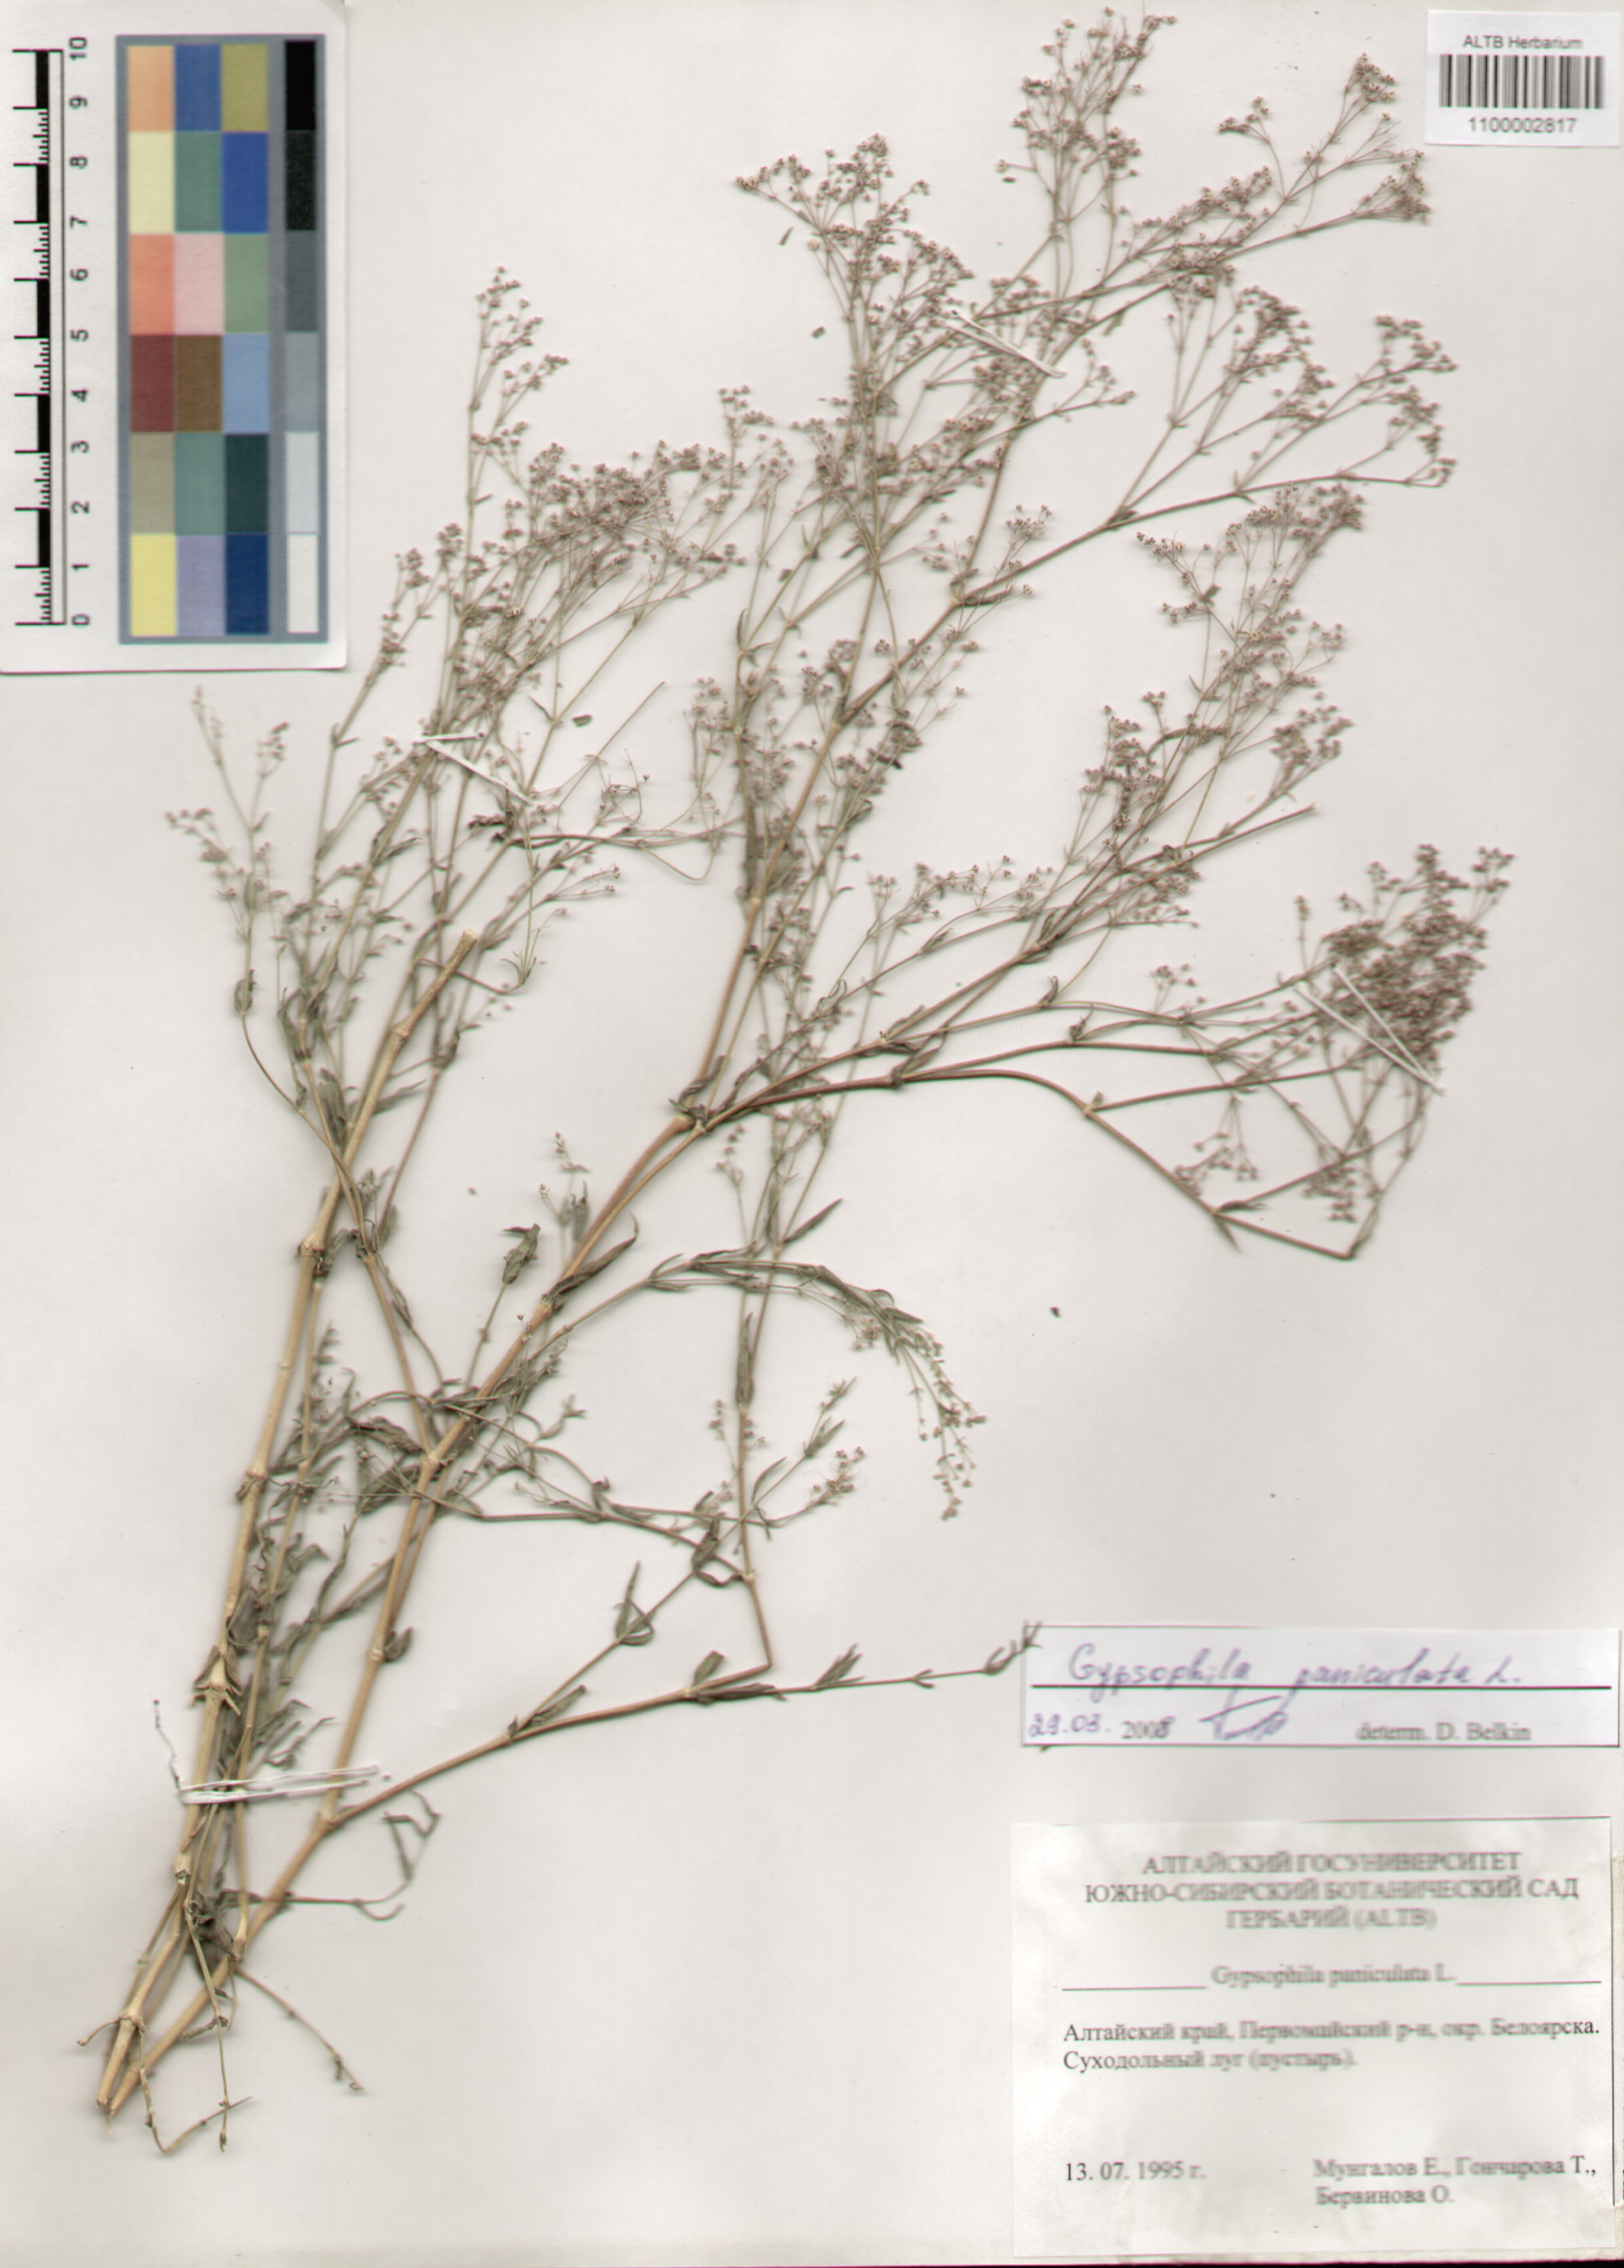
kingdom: Plantae
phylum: Tracheophyta
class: Magnoliopsida
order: Caryophyllales
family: Caryophyllaceae
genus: Gypsophila
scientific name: Gypsophila paniculata
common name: Baby's-breath
